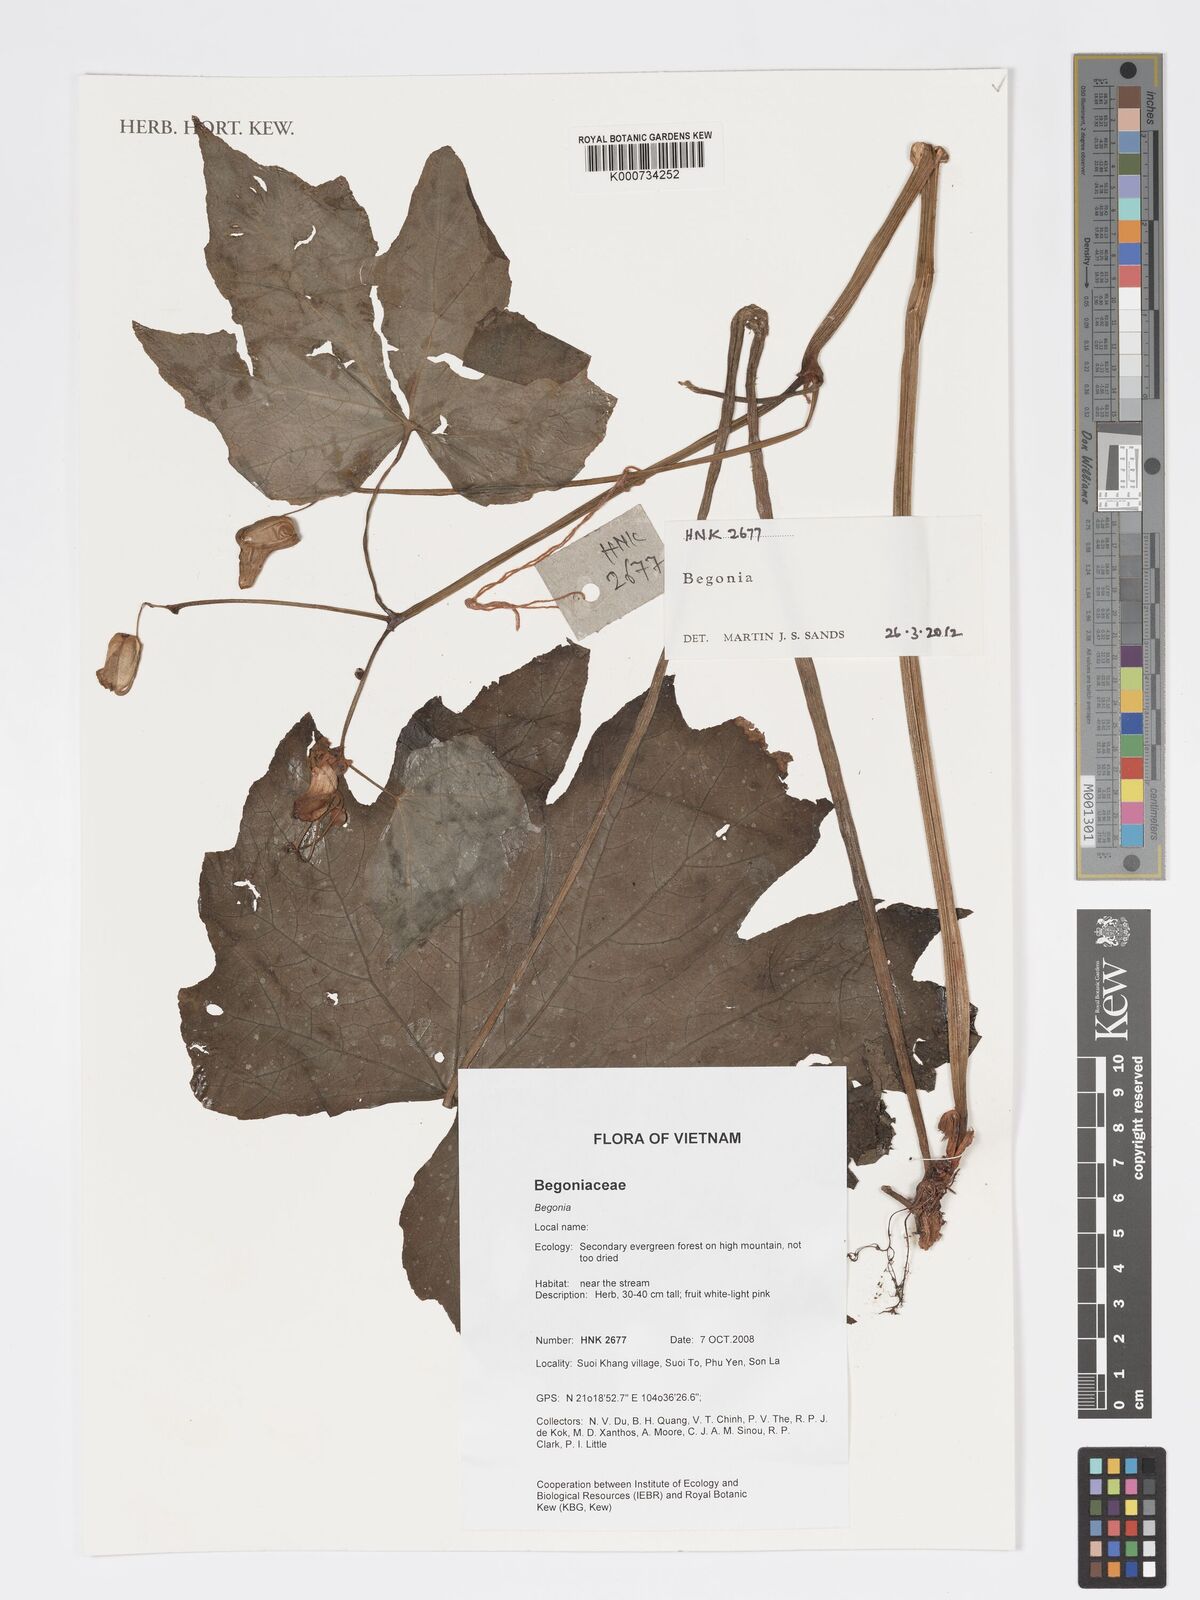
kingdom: Plantae
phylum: Tracheophyta
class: Magnoliopsida
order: Cucurbitales
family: Begoniaceae
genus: Begonia
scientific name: Begonia
